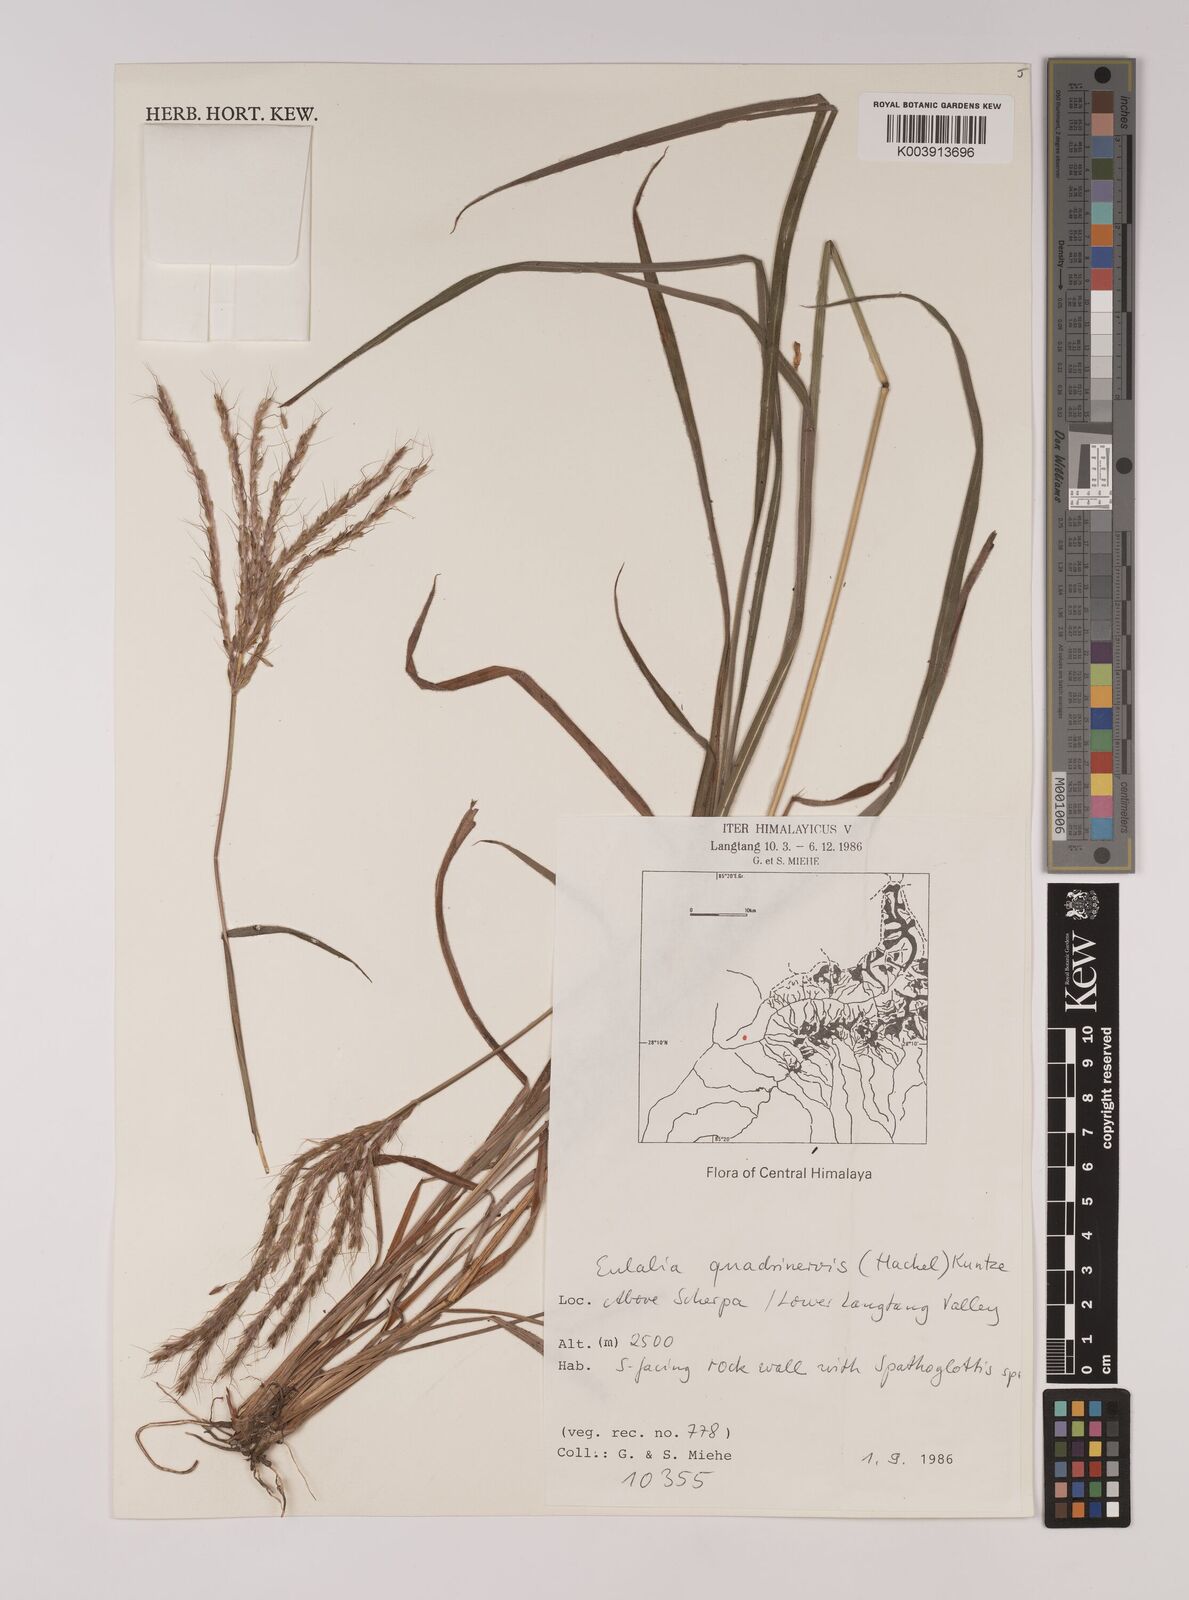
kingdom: Plantae
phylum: Tracheophyta
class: Liliopsida
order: Poales
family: Poaceae
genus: Pseudopogonatherum
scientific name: Pseudopogonatherum quadrinerve
